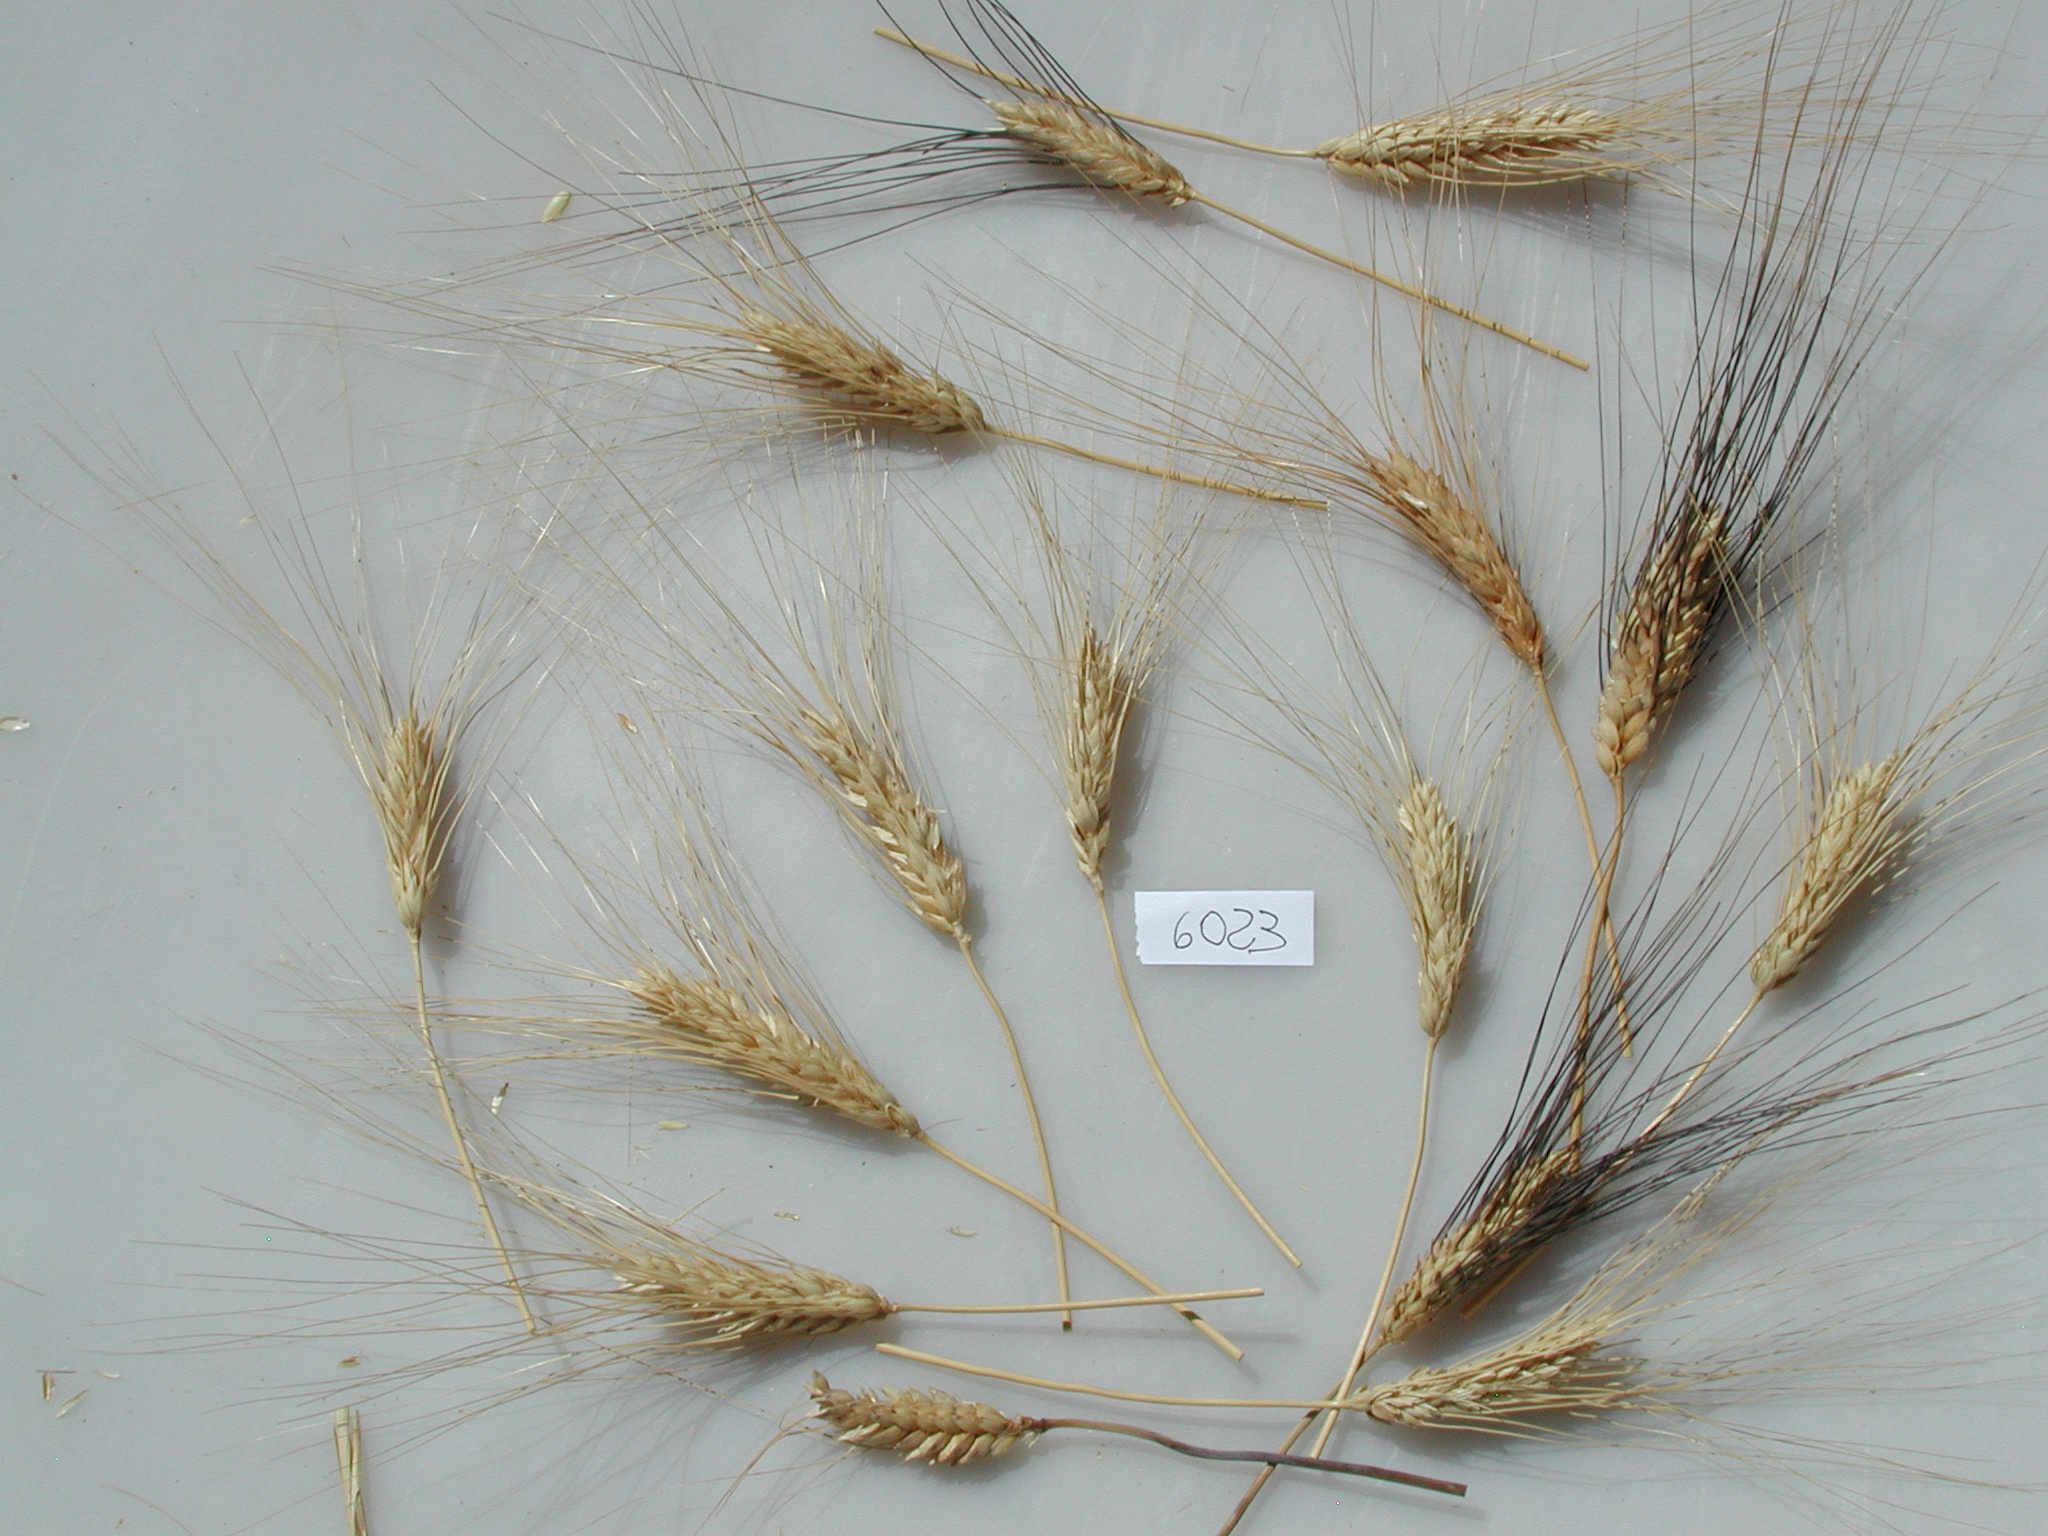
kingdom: Plantae
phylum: Tracheophyta
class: Liliopsida
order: Poales
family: Poaceae
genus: Triticum
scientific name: Triticum turgidum
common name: Wheat
